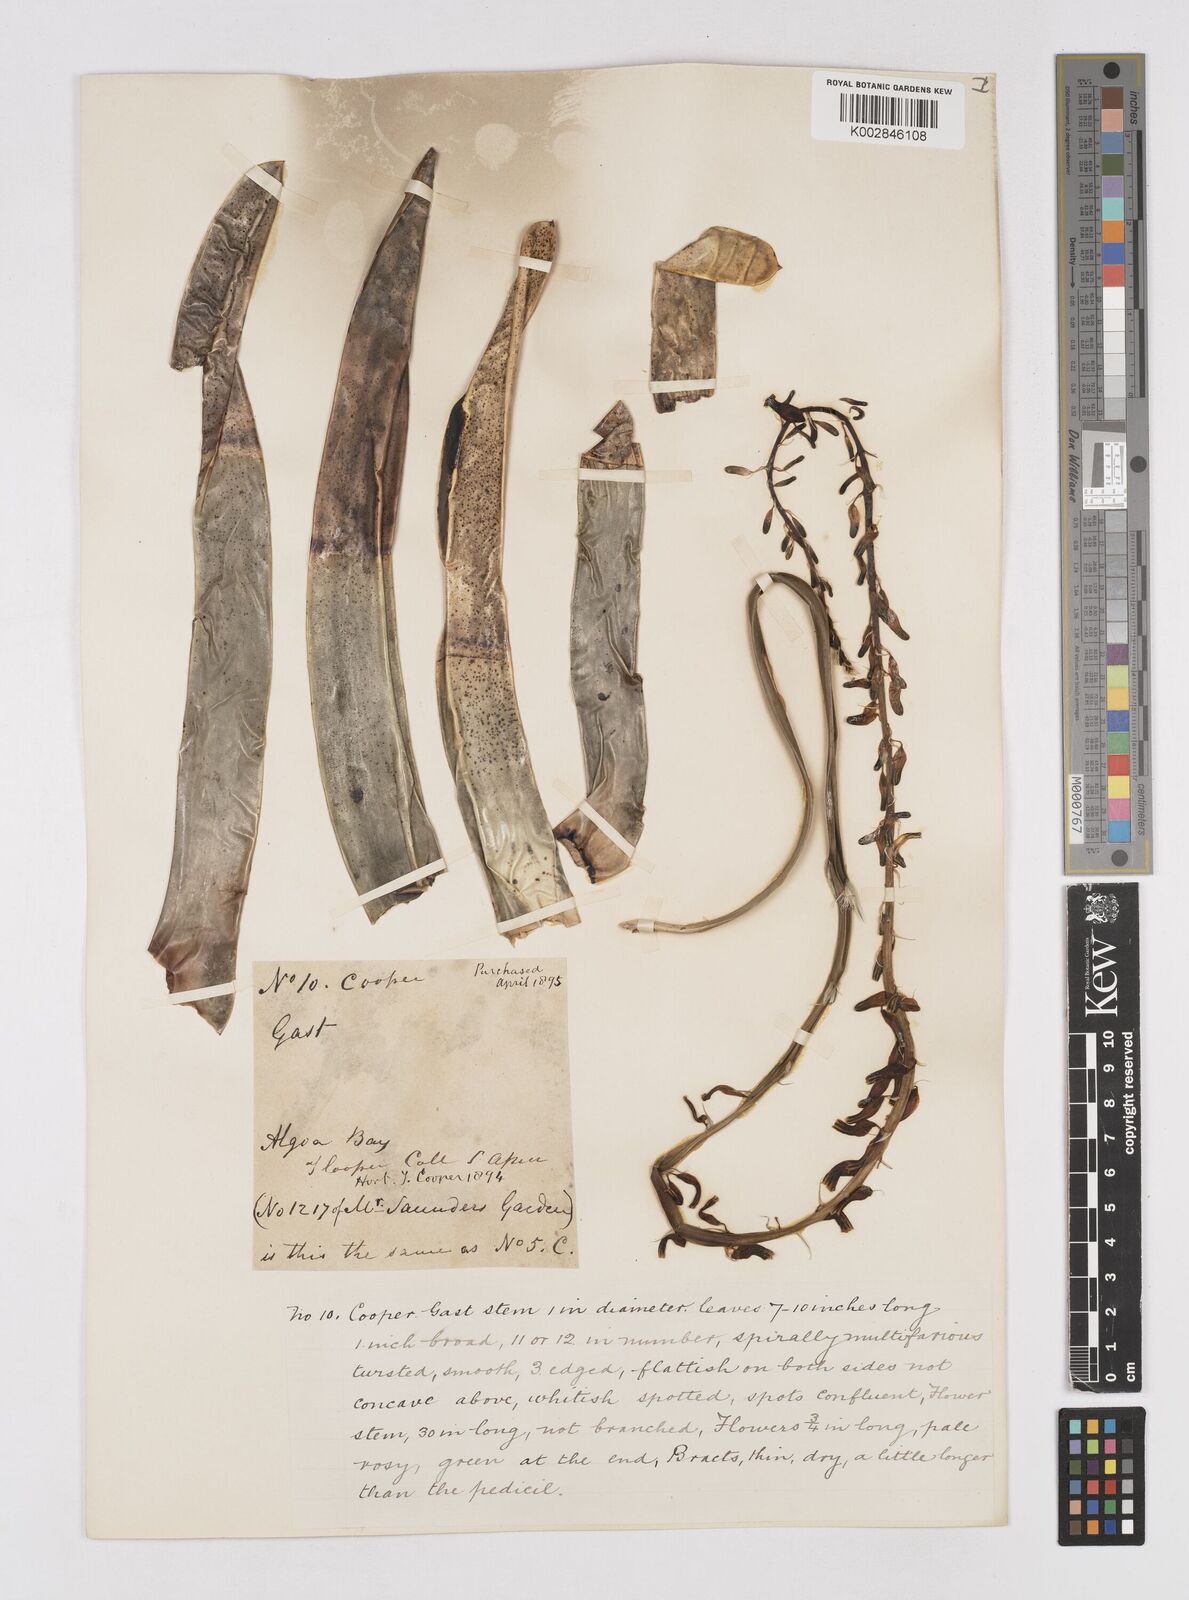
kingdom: Plantae
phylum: Tracheophyta
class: Liliopsida
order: Asparagales
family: Asphodelaceae
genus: Gasteria
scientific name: Gasteria
